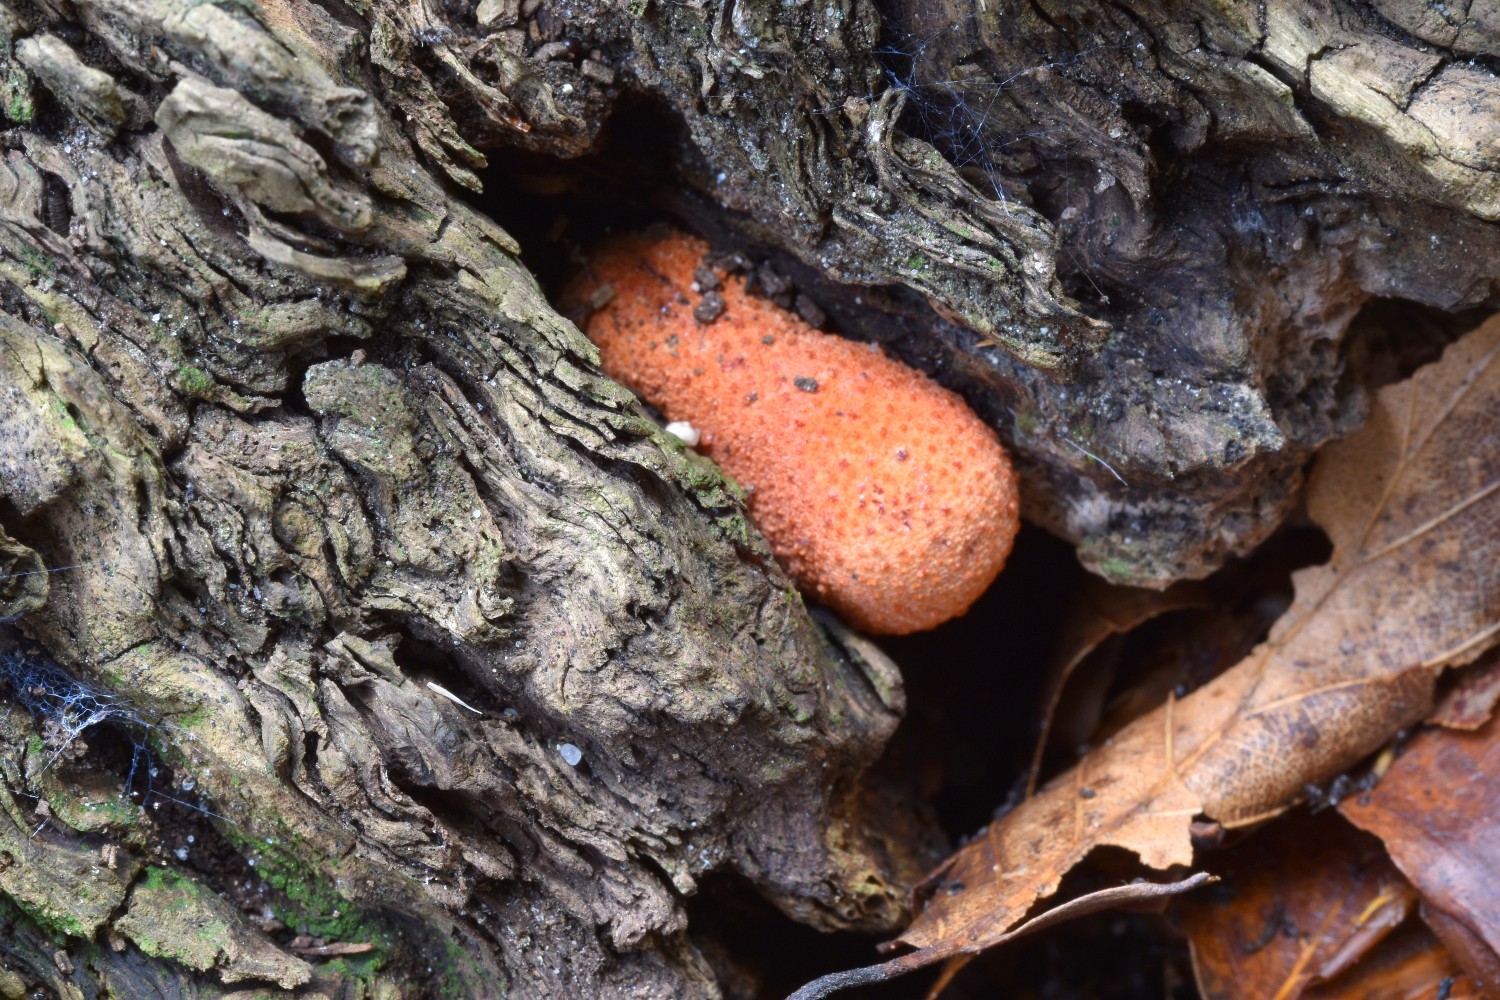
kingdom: Fungi
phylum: Basidiomycota
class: Agaricomycetes
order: Agaricales
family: Fistulinaceae
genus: Fistulina
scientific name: Fistulina hepatica
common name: oksetunge
